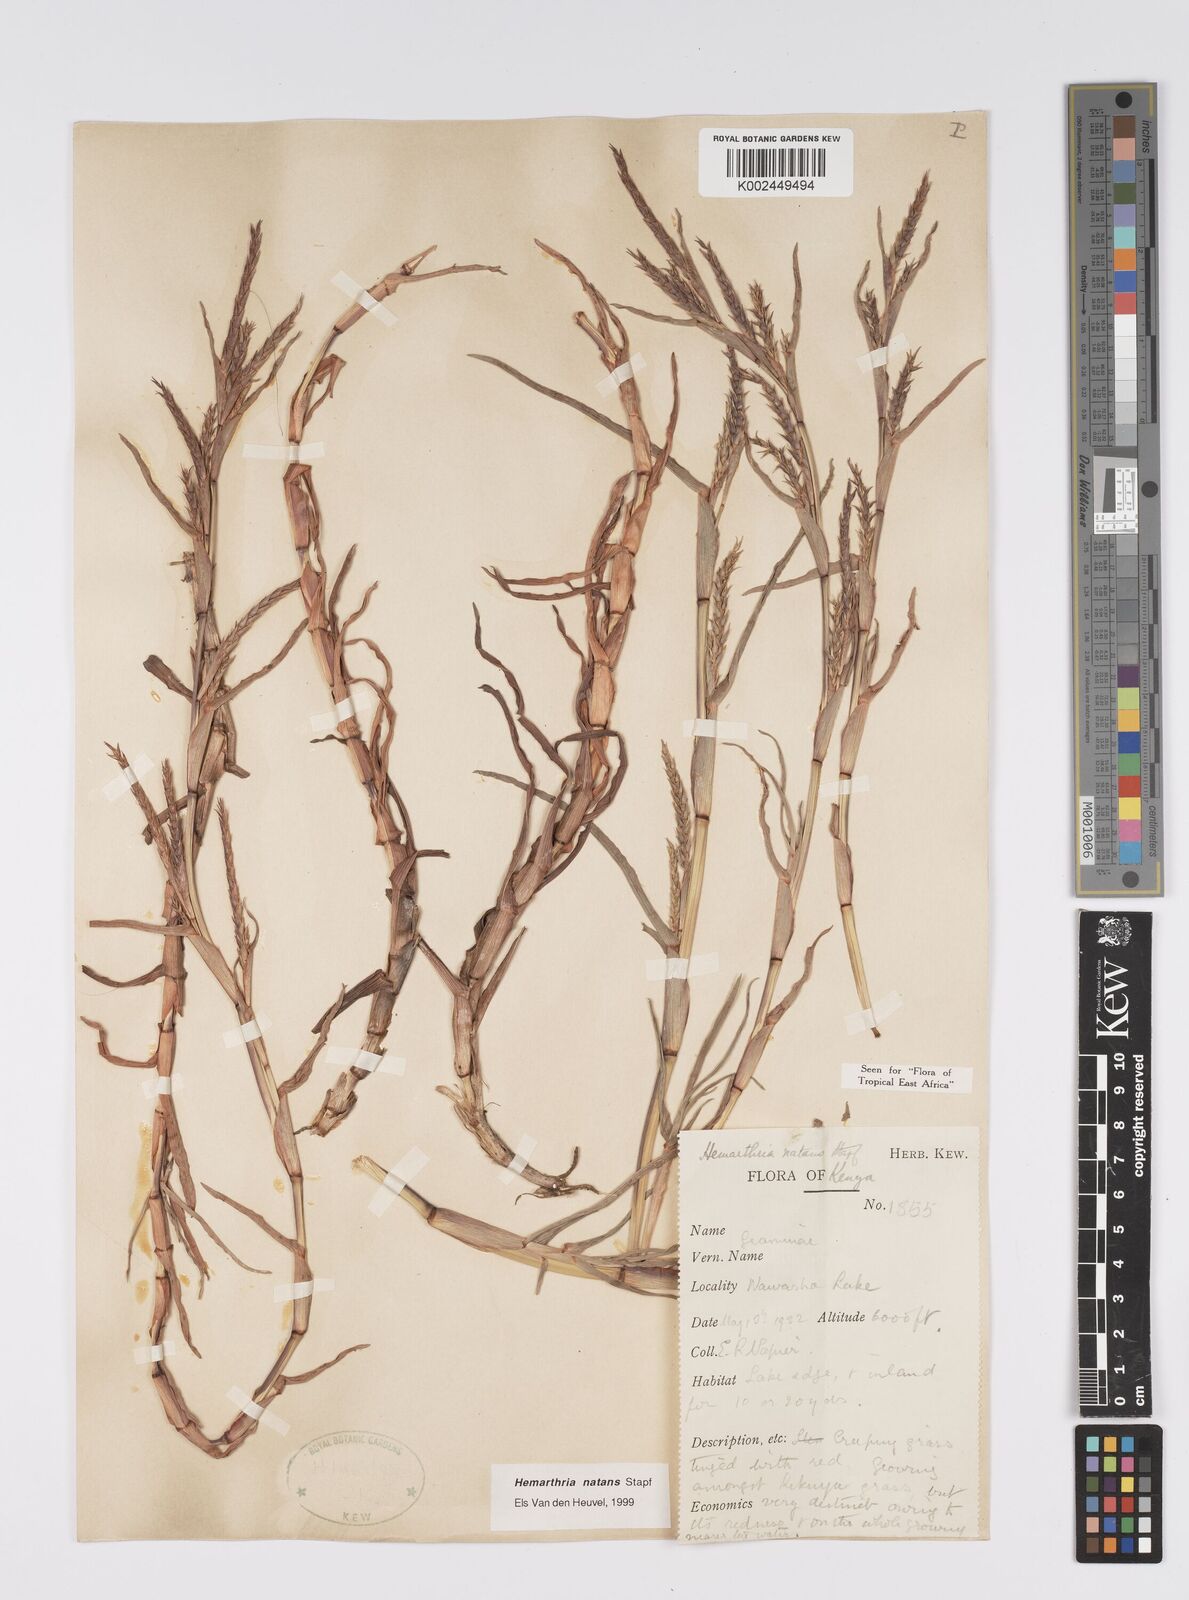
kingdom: Plantae
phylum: Tracheophyta
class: Liliopsida
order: Poales
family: Poaceae
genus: Hemarthria
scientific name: Hemarthria natans
